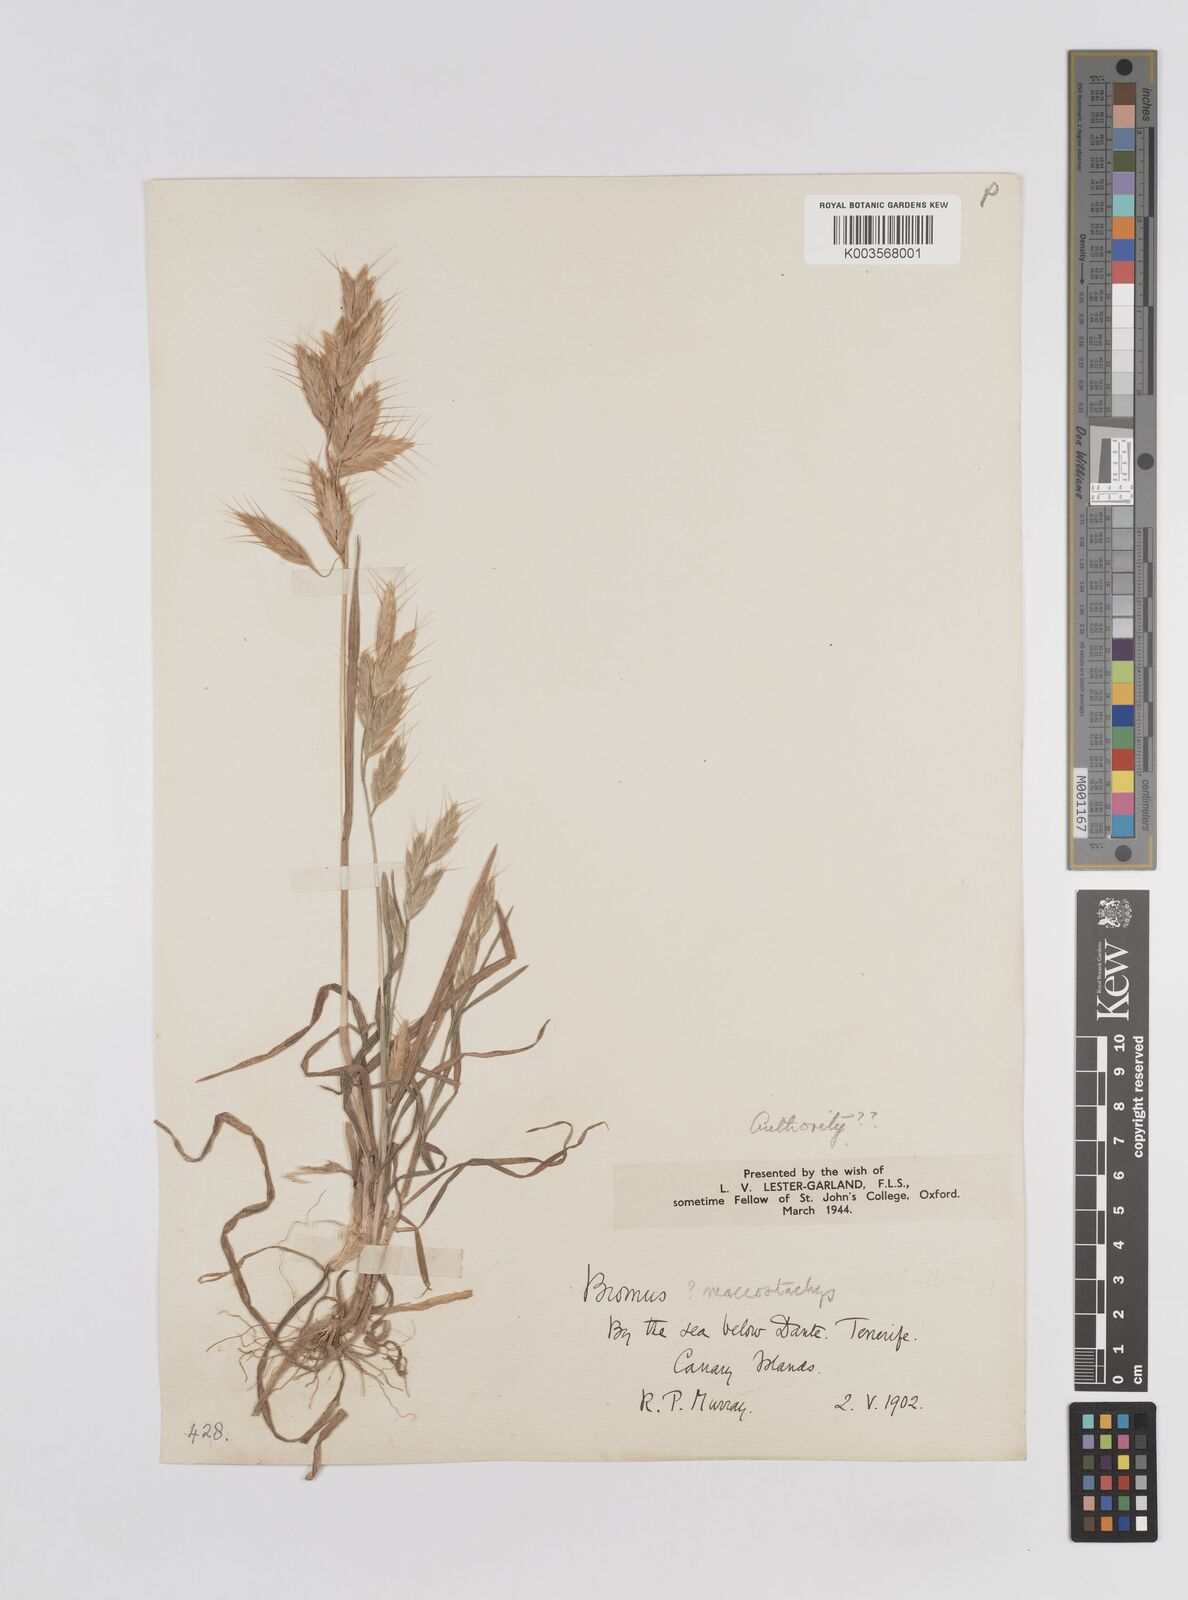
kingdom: Plantae
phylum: Tracheophyta
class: Liliopsida
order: Poales
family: Poaceae
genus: Bromus
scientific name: Bromus lanceolatus
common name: Mediterranean brome
